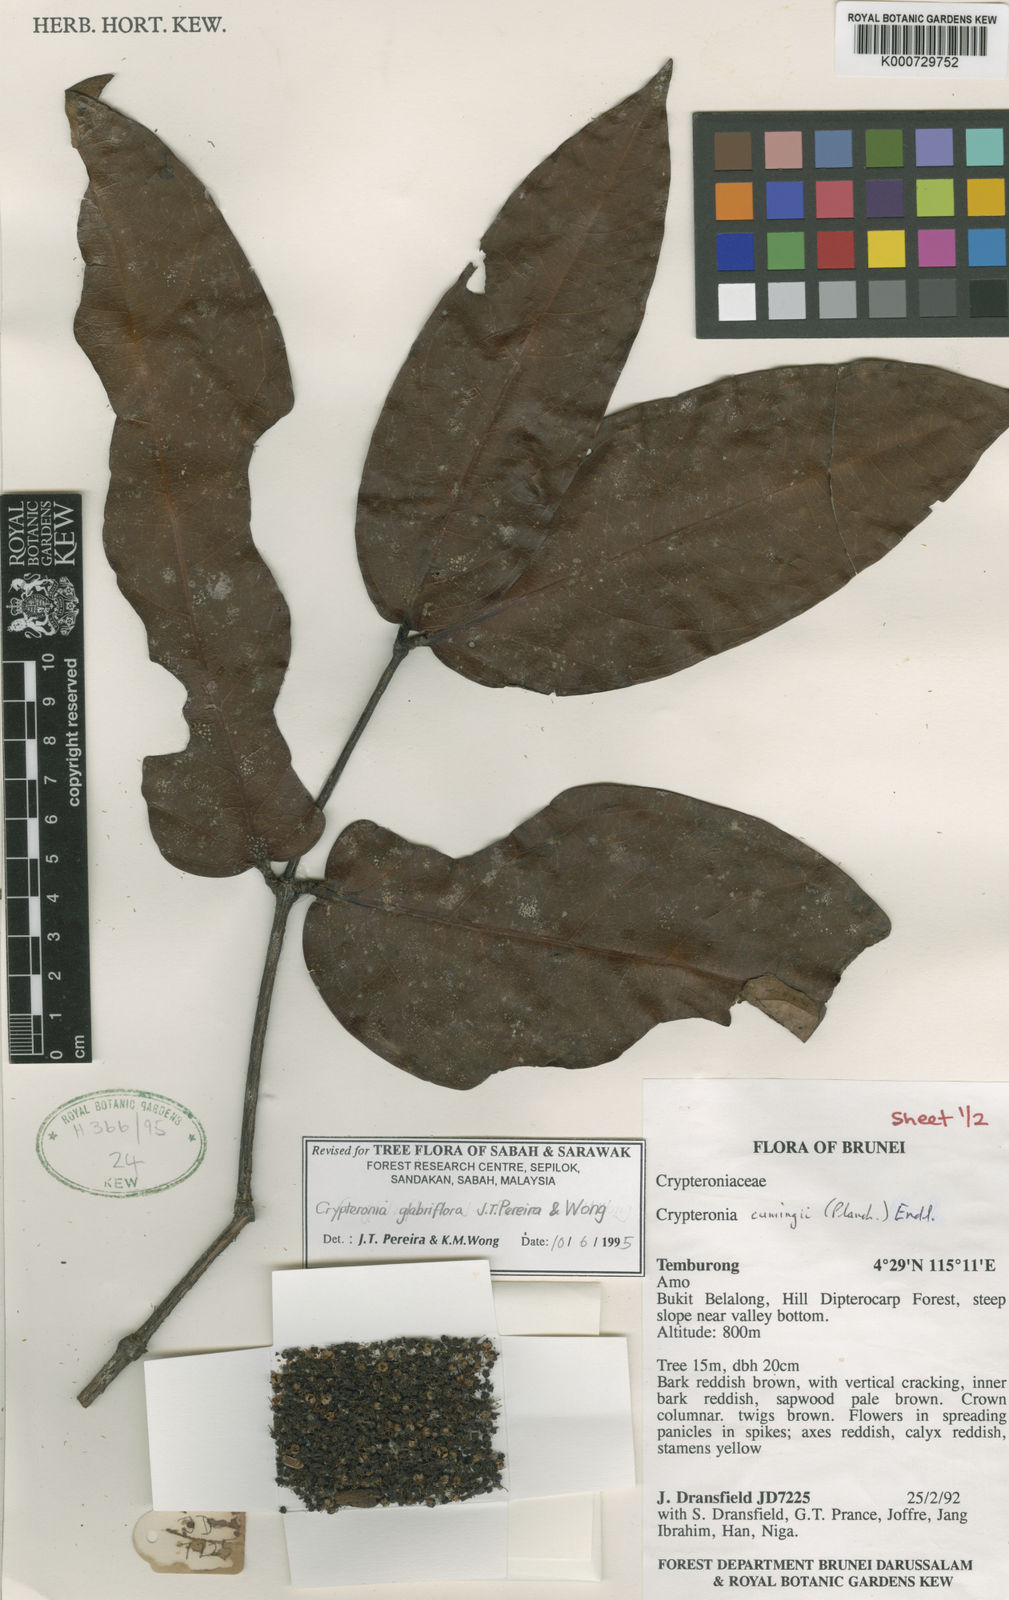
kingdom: Plantae
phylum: Tracheophyta
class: Magnoliopsida
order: Myrtales
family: Crypteroniaceae
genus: Crypteronia
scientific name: Crypteronia glabriflora
